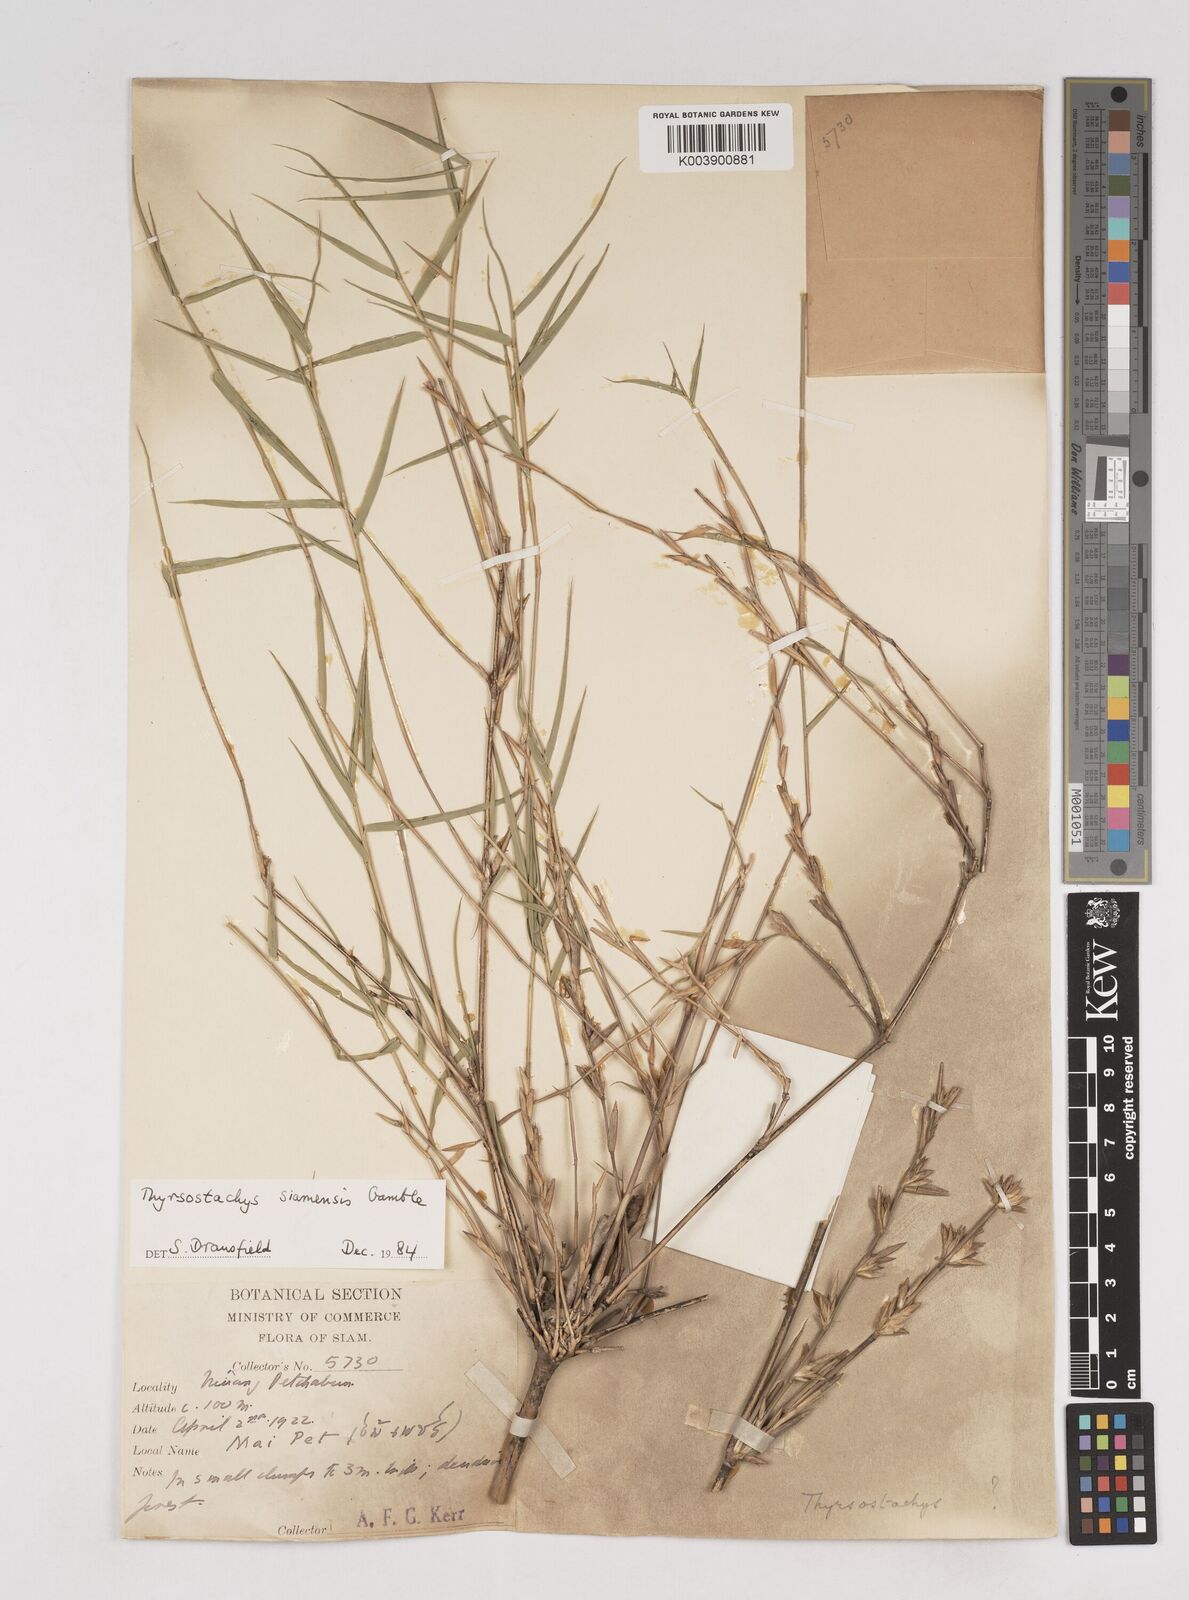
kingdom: Plantae
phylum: Tracheophyta
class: Liliopsida
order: Poales
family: Poaceae
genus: Thyrsostachys
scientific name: Thyrsostachys
